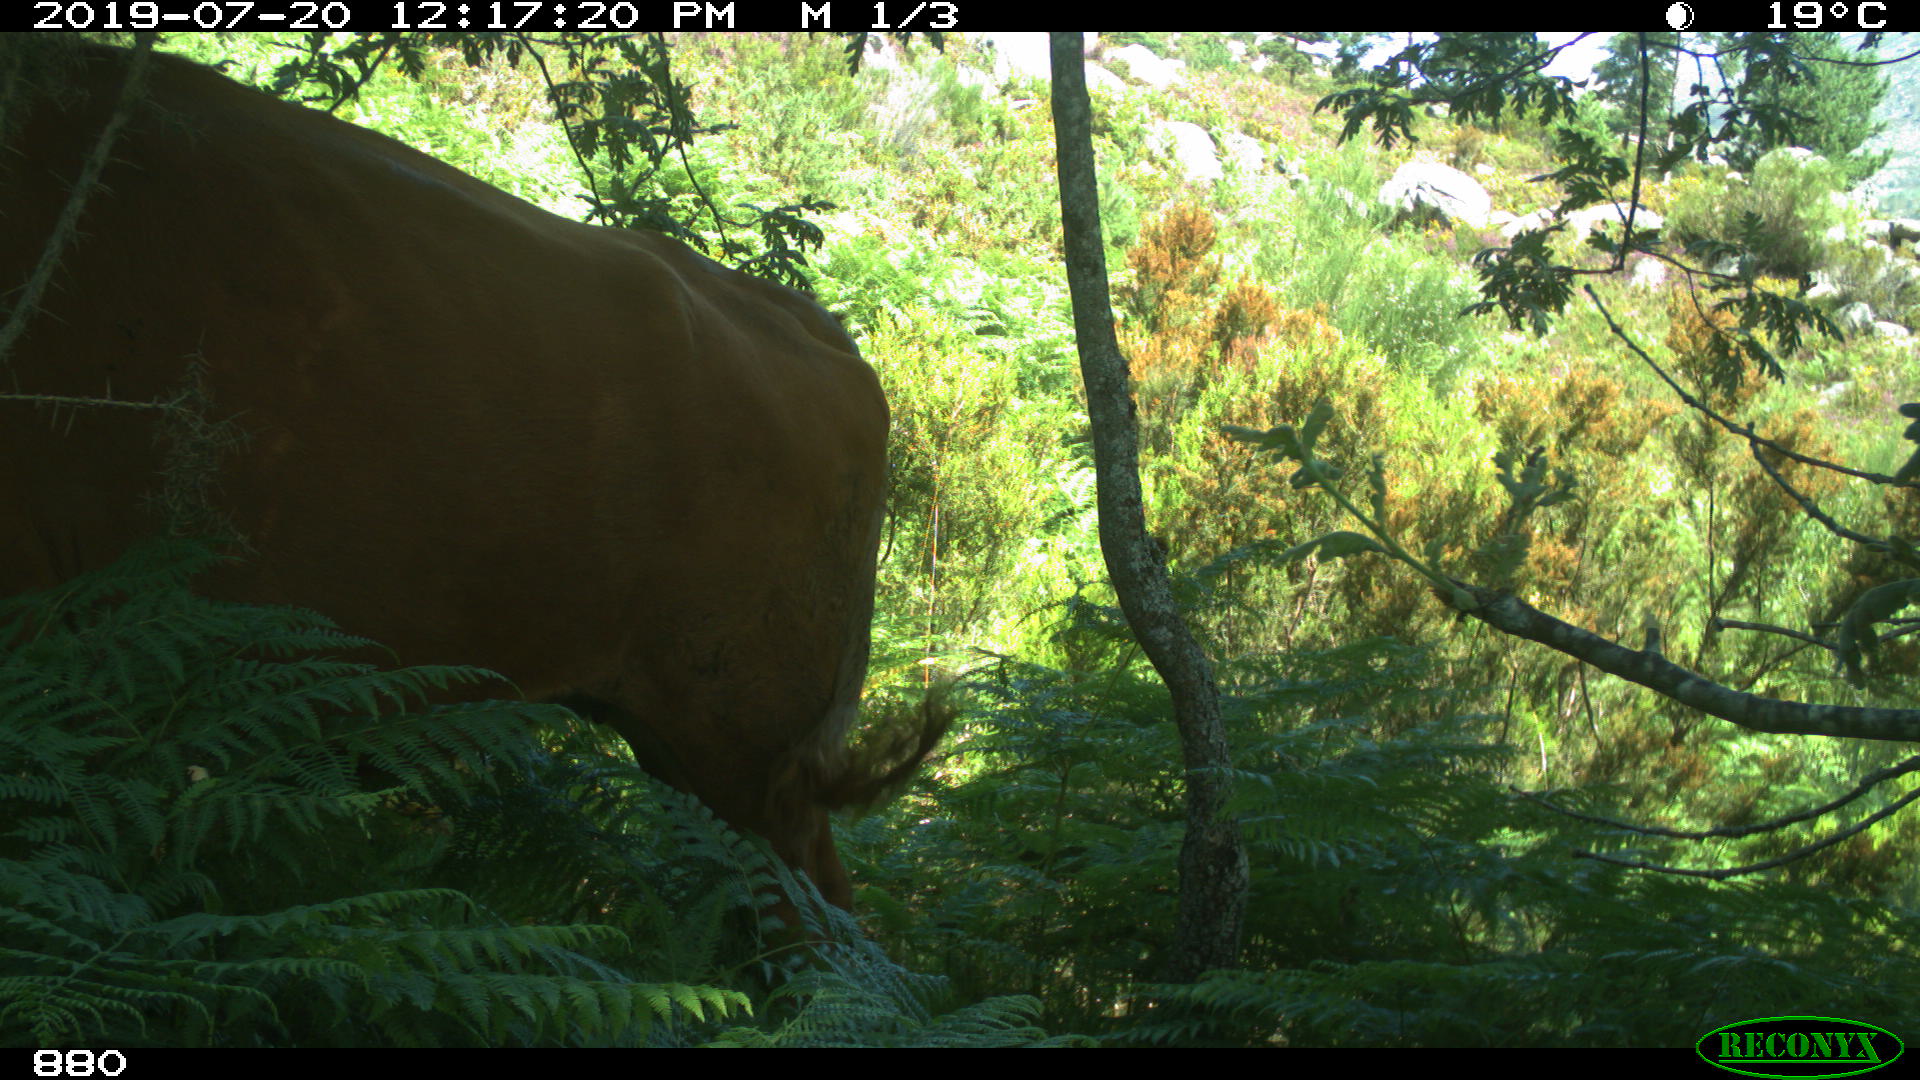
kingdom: Animalia
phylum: Chordata
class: Mammalia
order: Artiodactyla
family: Bovidae
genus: Bos
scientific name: Bos taurus
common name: Domesticated cattle
